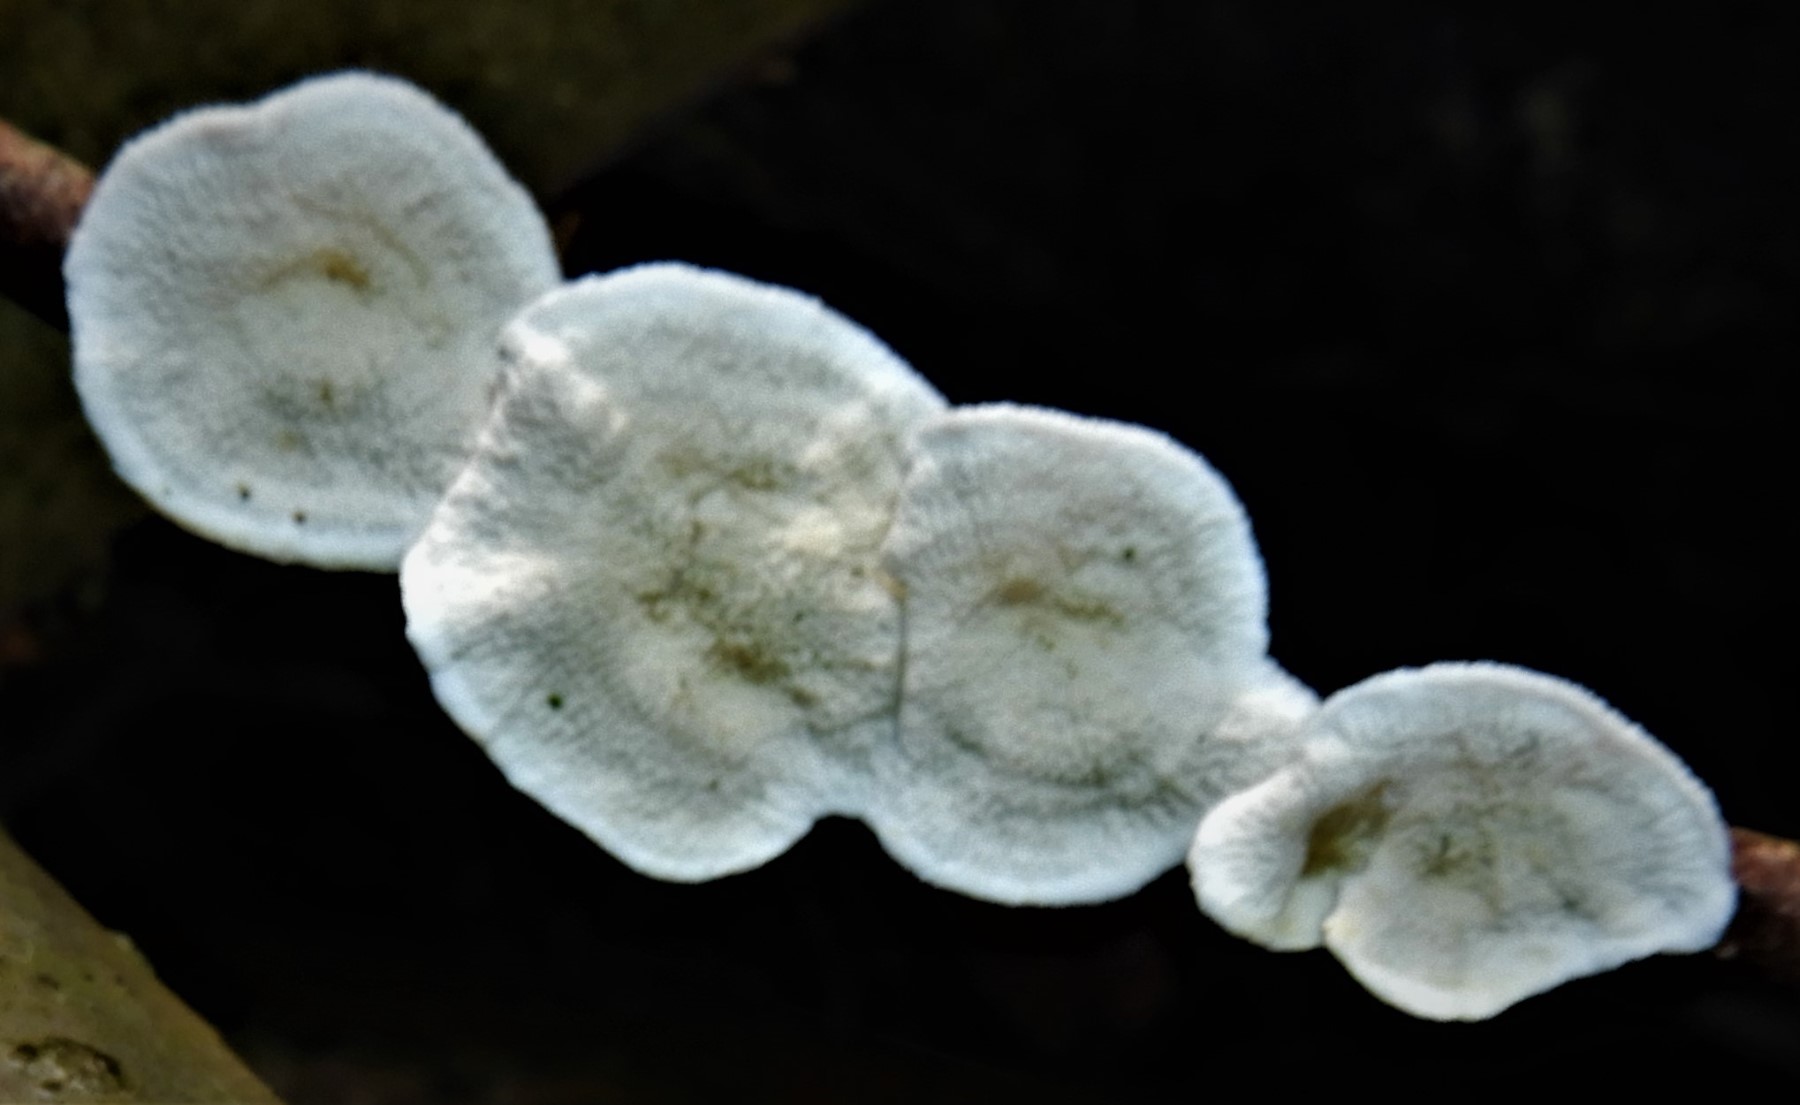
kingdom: Fungi
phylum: Basidiomycota
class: Agaricomycetes
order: Polyporales
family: Irpicaceae
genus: Byssomerulius
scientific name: Byssomerulius corium
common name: læder-åresvamp
